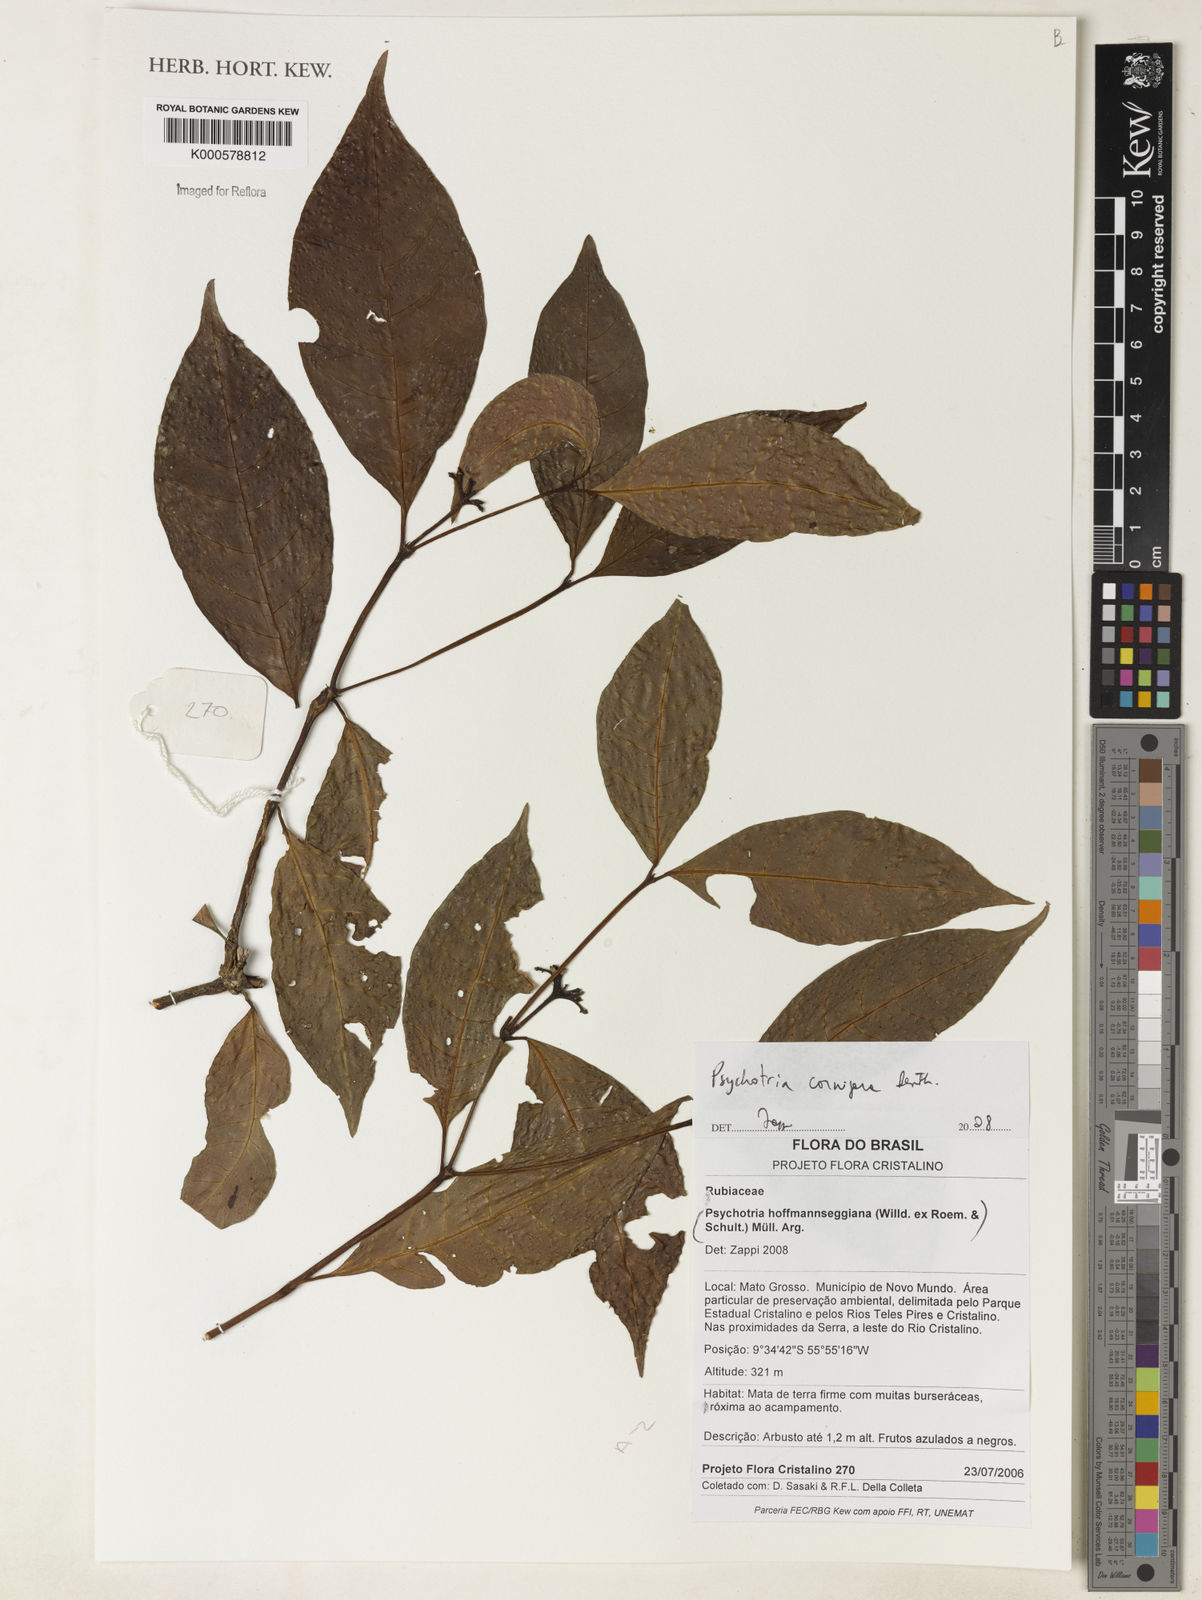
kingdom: Plantae
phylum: Tracheophyta
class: Magnoliopsida
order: Gentianales
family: Rubiaceae
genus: Palicourea
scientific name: Palicourea subcuspidata
